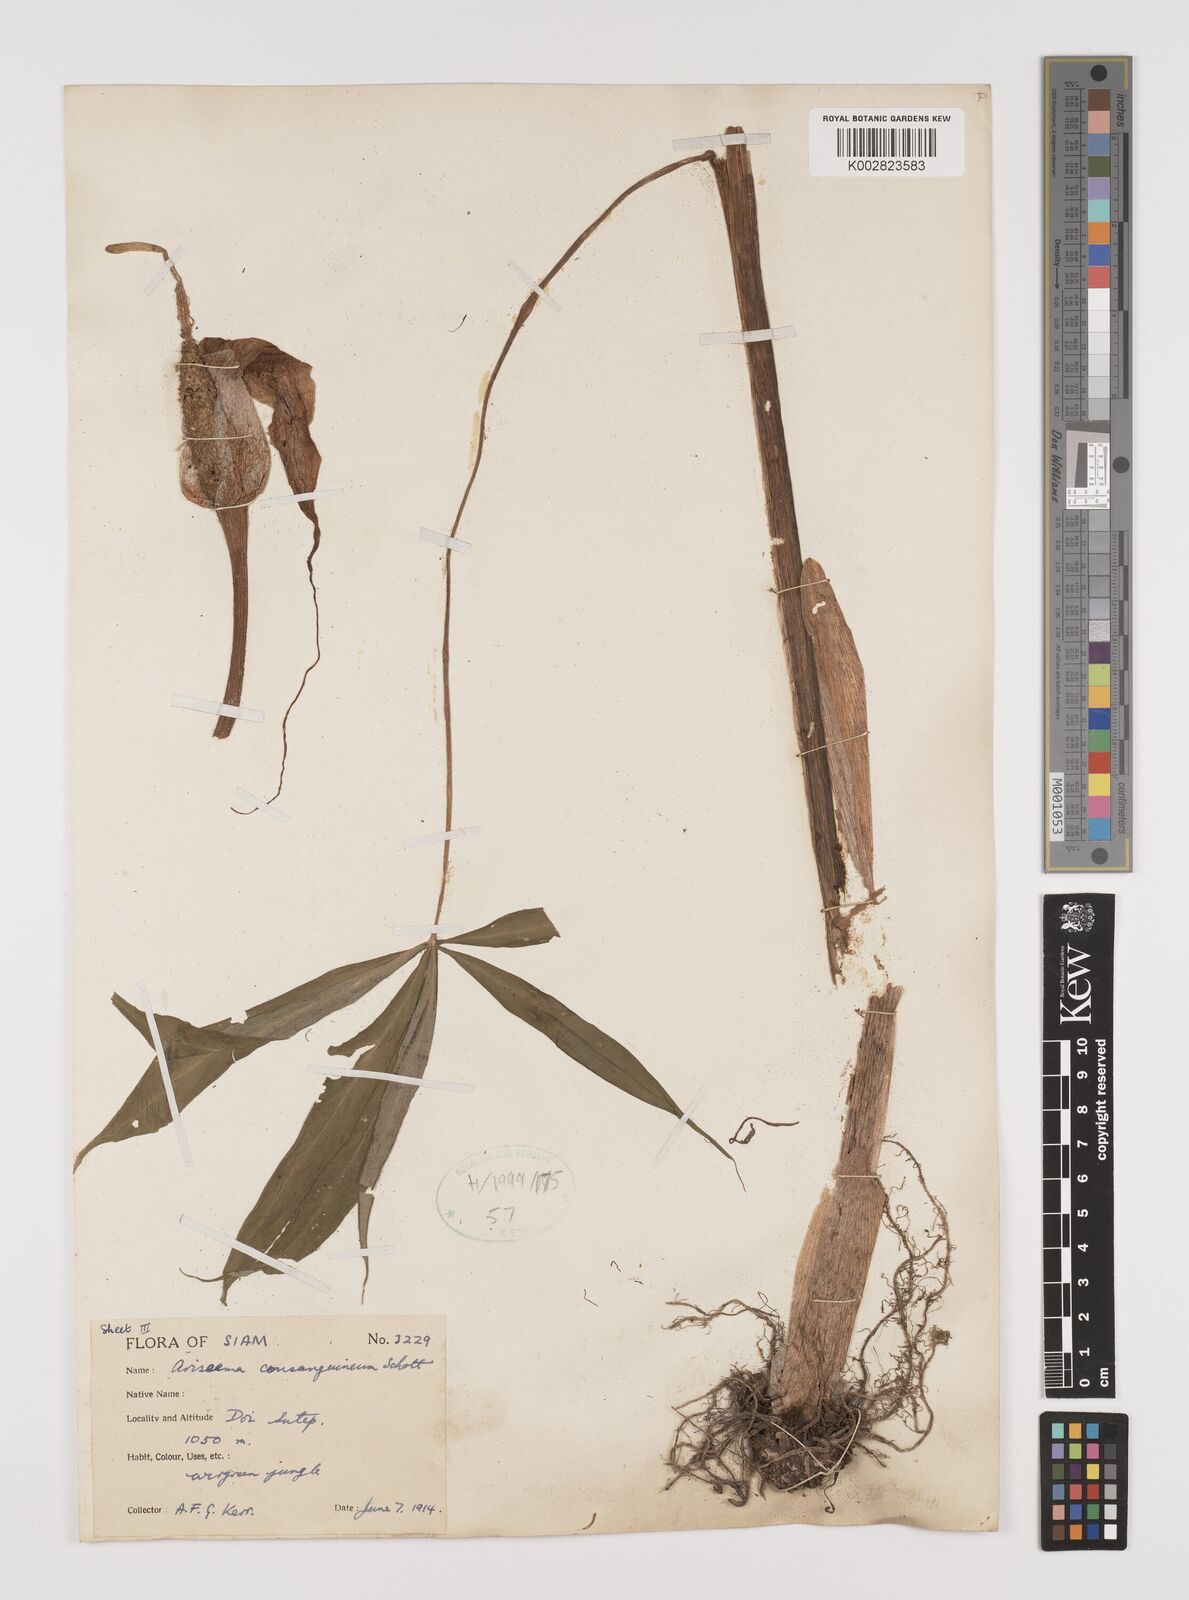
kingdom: Plantae
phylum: Tracheophyta
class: Liliopsida
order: Alismatales
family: Araceae
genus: Arisaema
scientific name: Arisaema consanguineum
